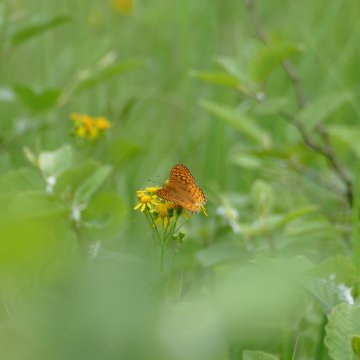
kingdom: Animalia
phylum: Arthropoda
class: Insecta
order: Lepidoptera
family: Nymphalidae
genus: Speyeria
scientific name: Speyeria atlantis
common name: Atlantis Fritillary
